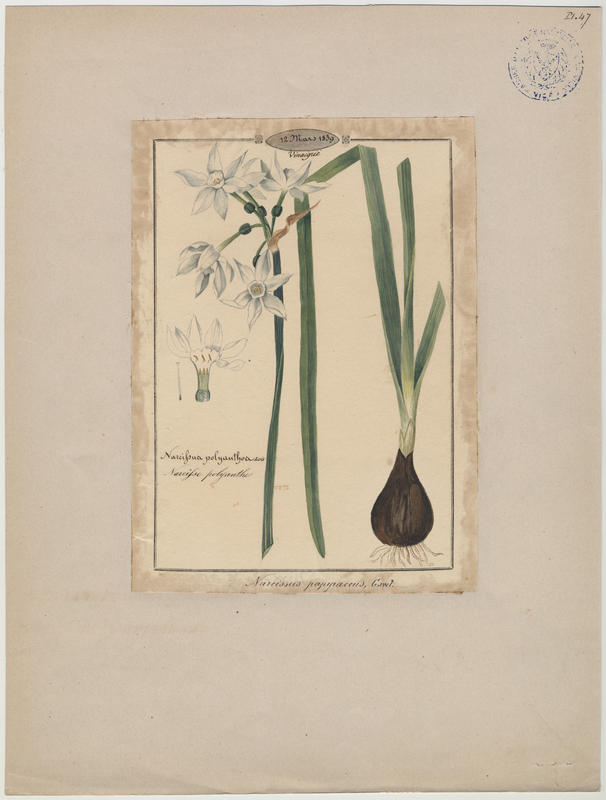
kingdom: Plantae
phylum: Tracheophyta
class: Liliopsida
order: Asparagales
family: Amaryllidaceae
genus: Narcissus
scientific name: Narcissus papyraceus
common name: Paper-white daffodil
